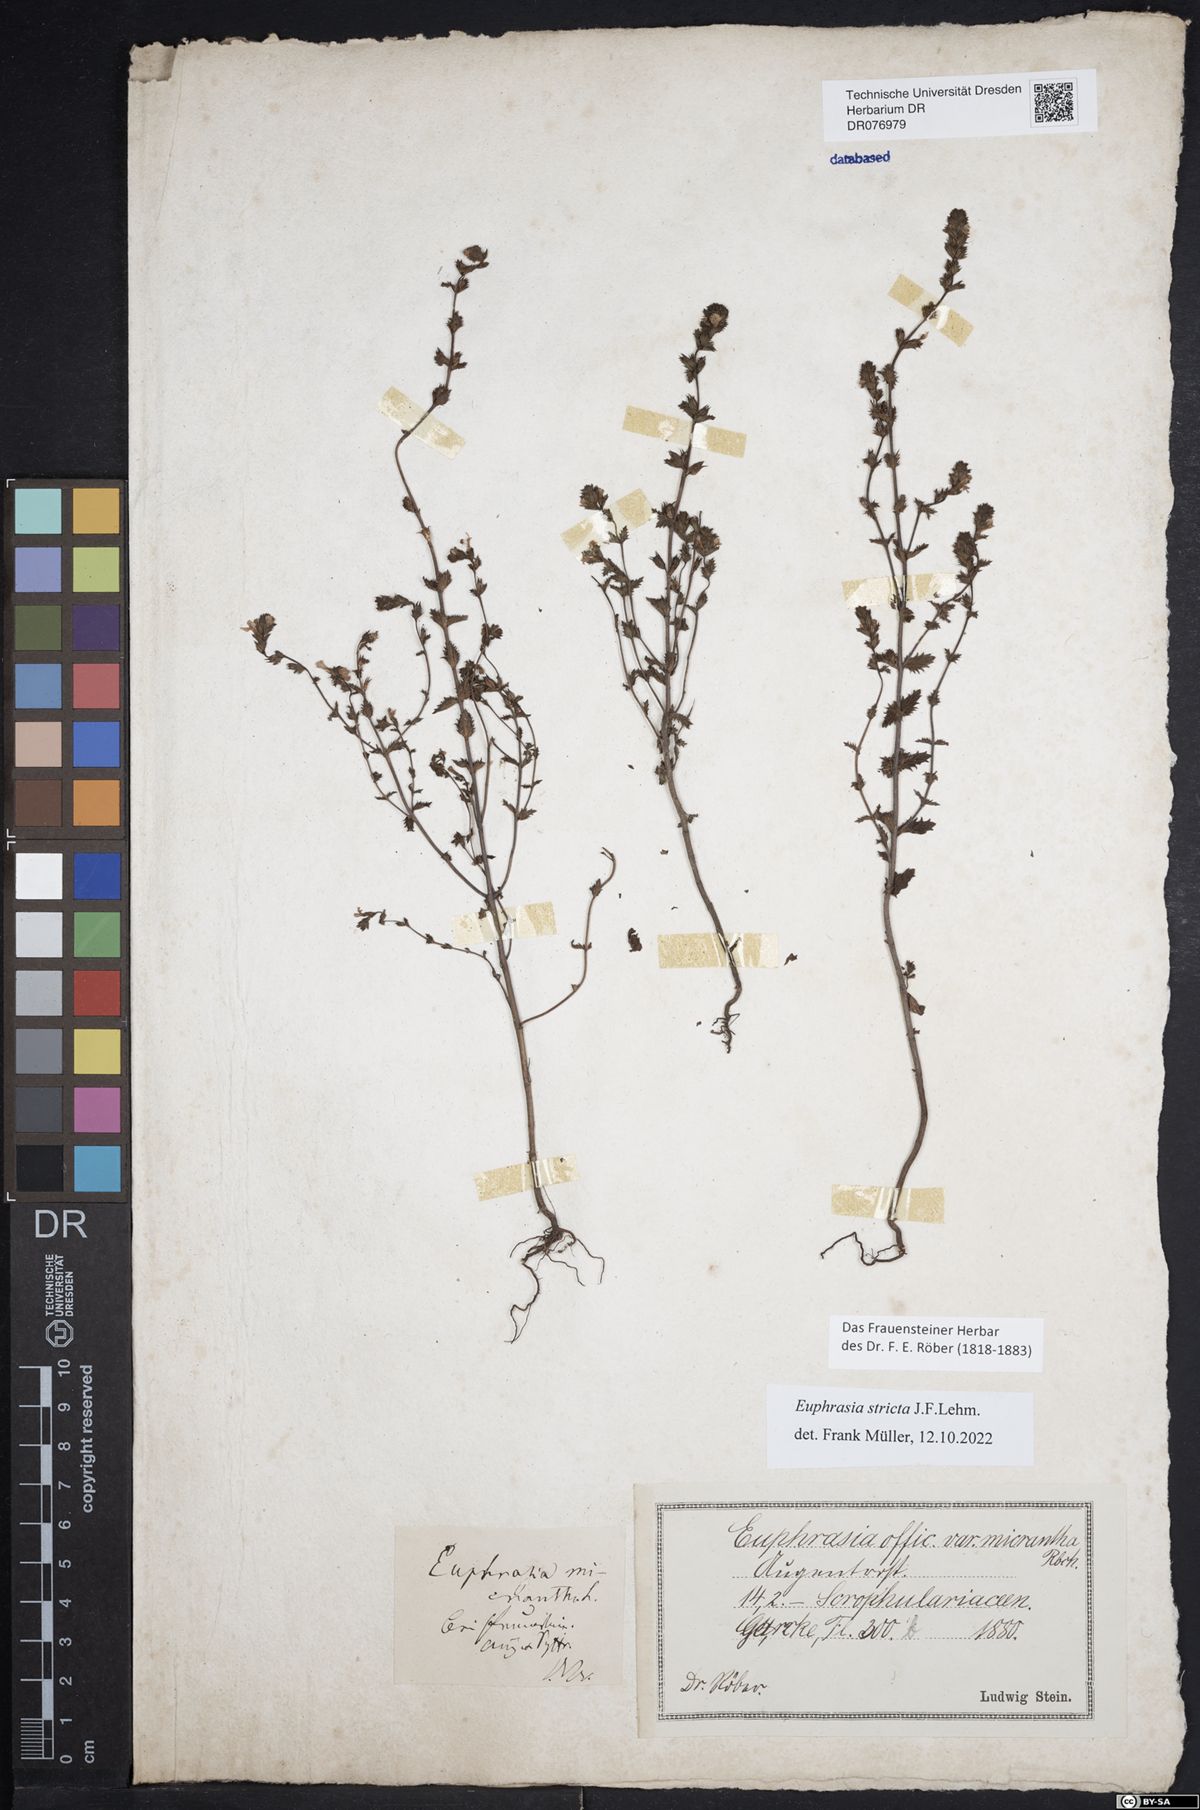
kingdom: Plantae
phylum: Tracheophyta
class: Magnoliopsida
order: Lamiales
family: Orobanchaceae
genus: Euphrasia
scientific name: Euphrasia stricta
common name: Drug eyebright
